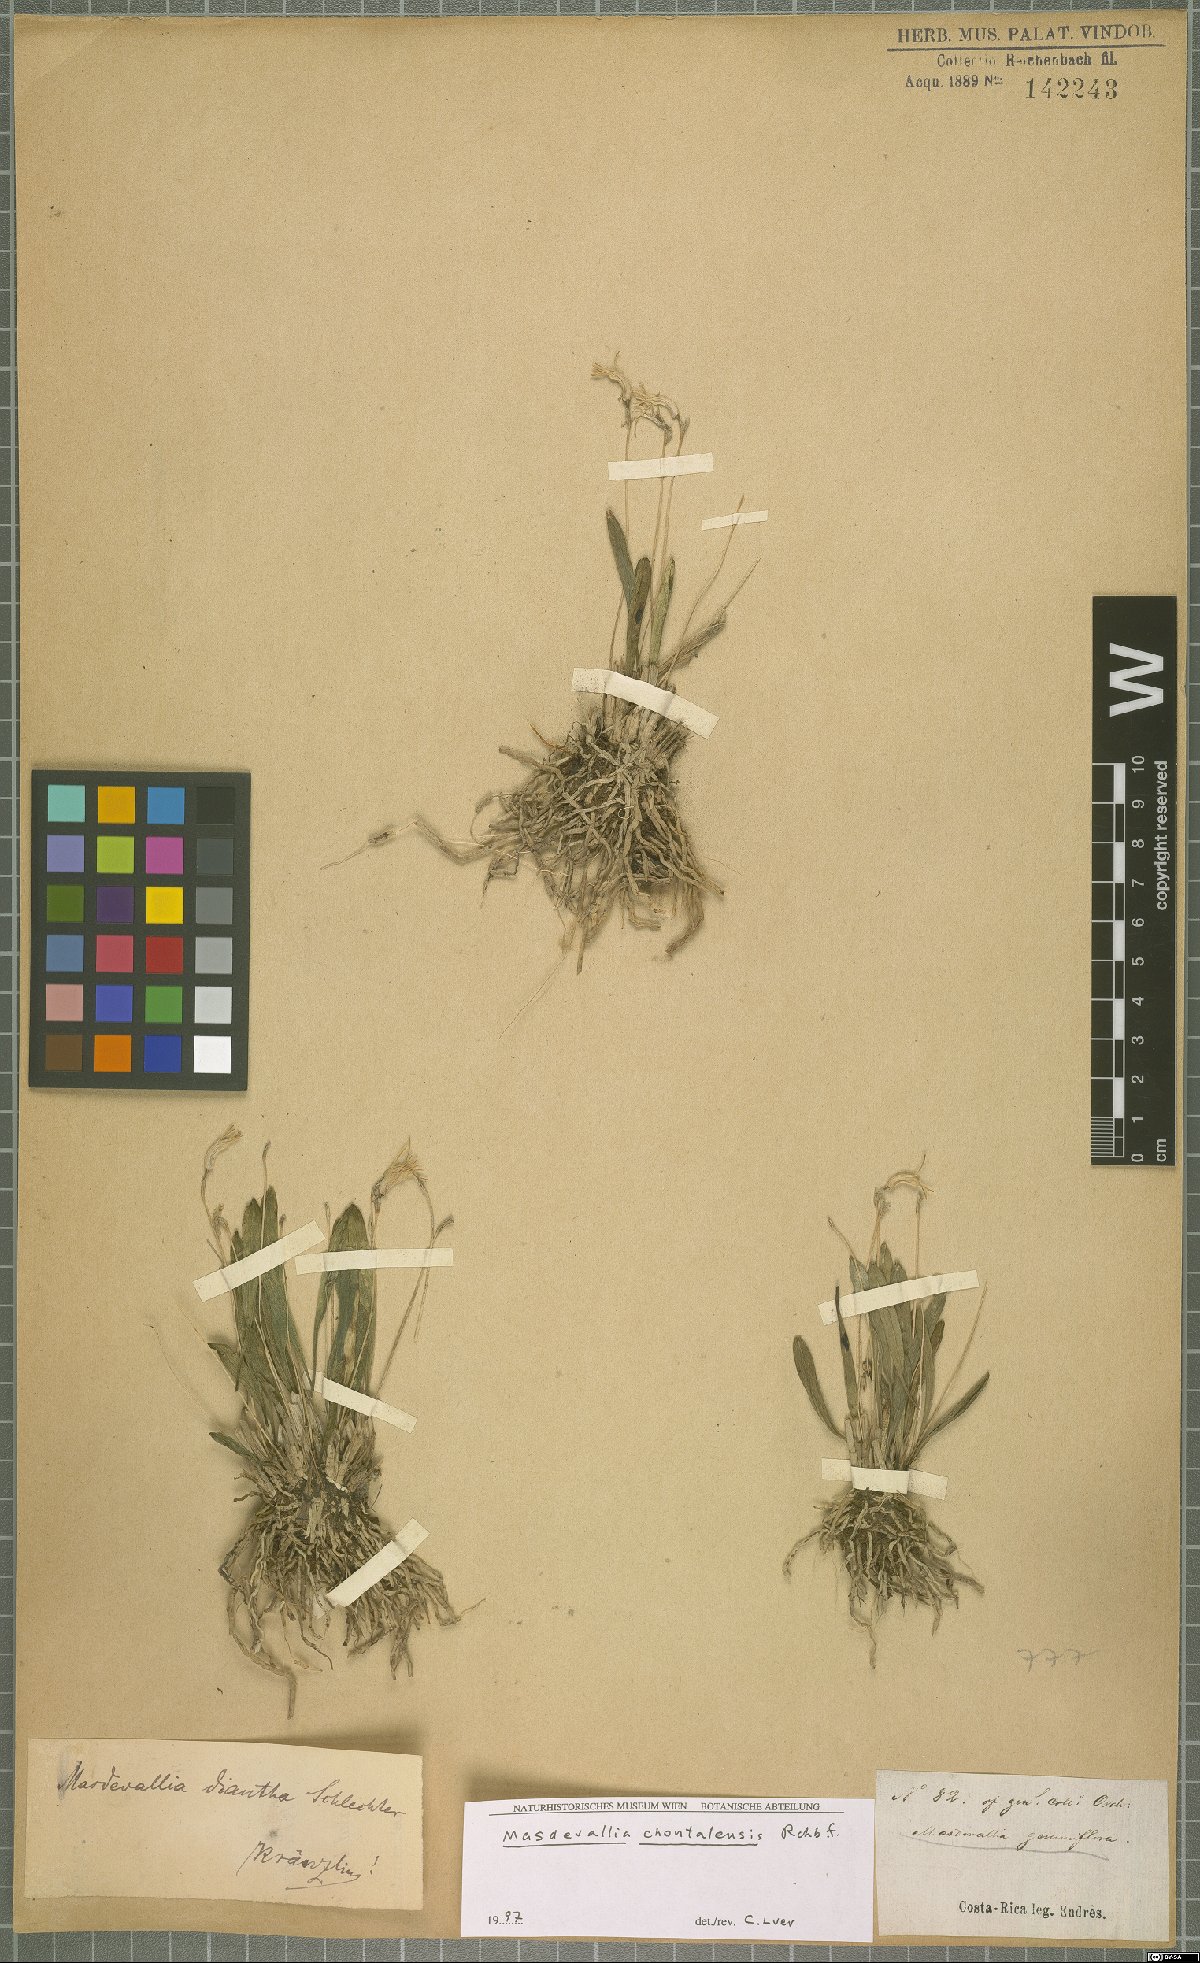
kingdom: Plantae
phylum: Tracheophyta
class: Liliopsida
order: Asparagales
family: Orchidaceae
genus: Masdevallia
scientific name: Masdevallia chontalensis
